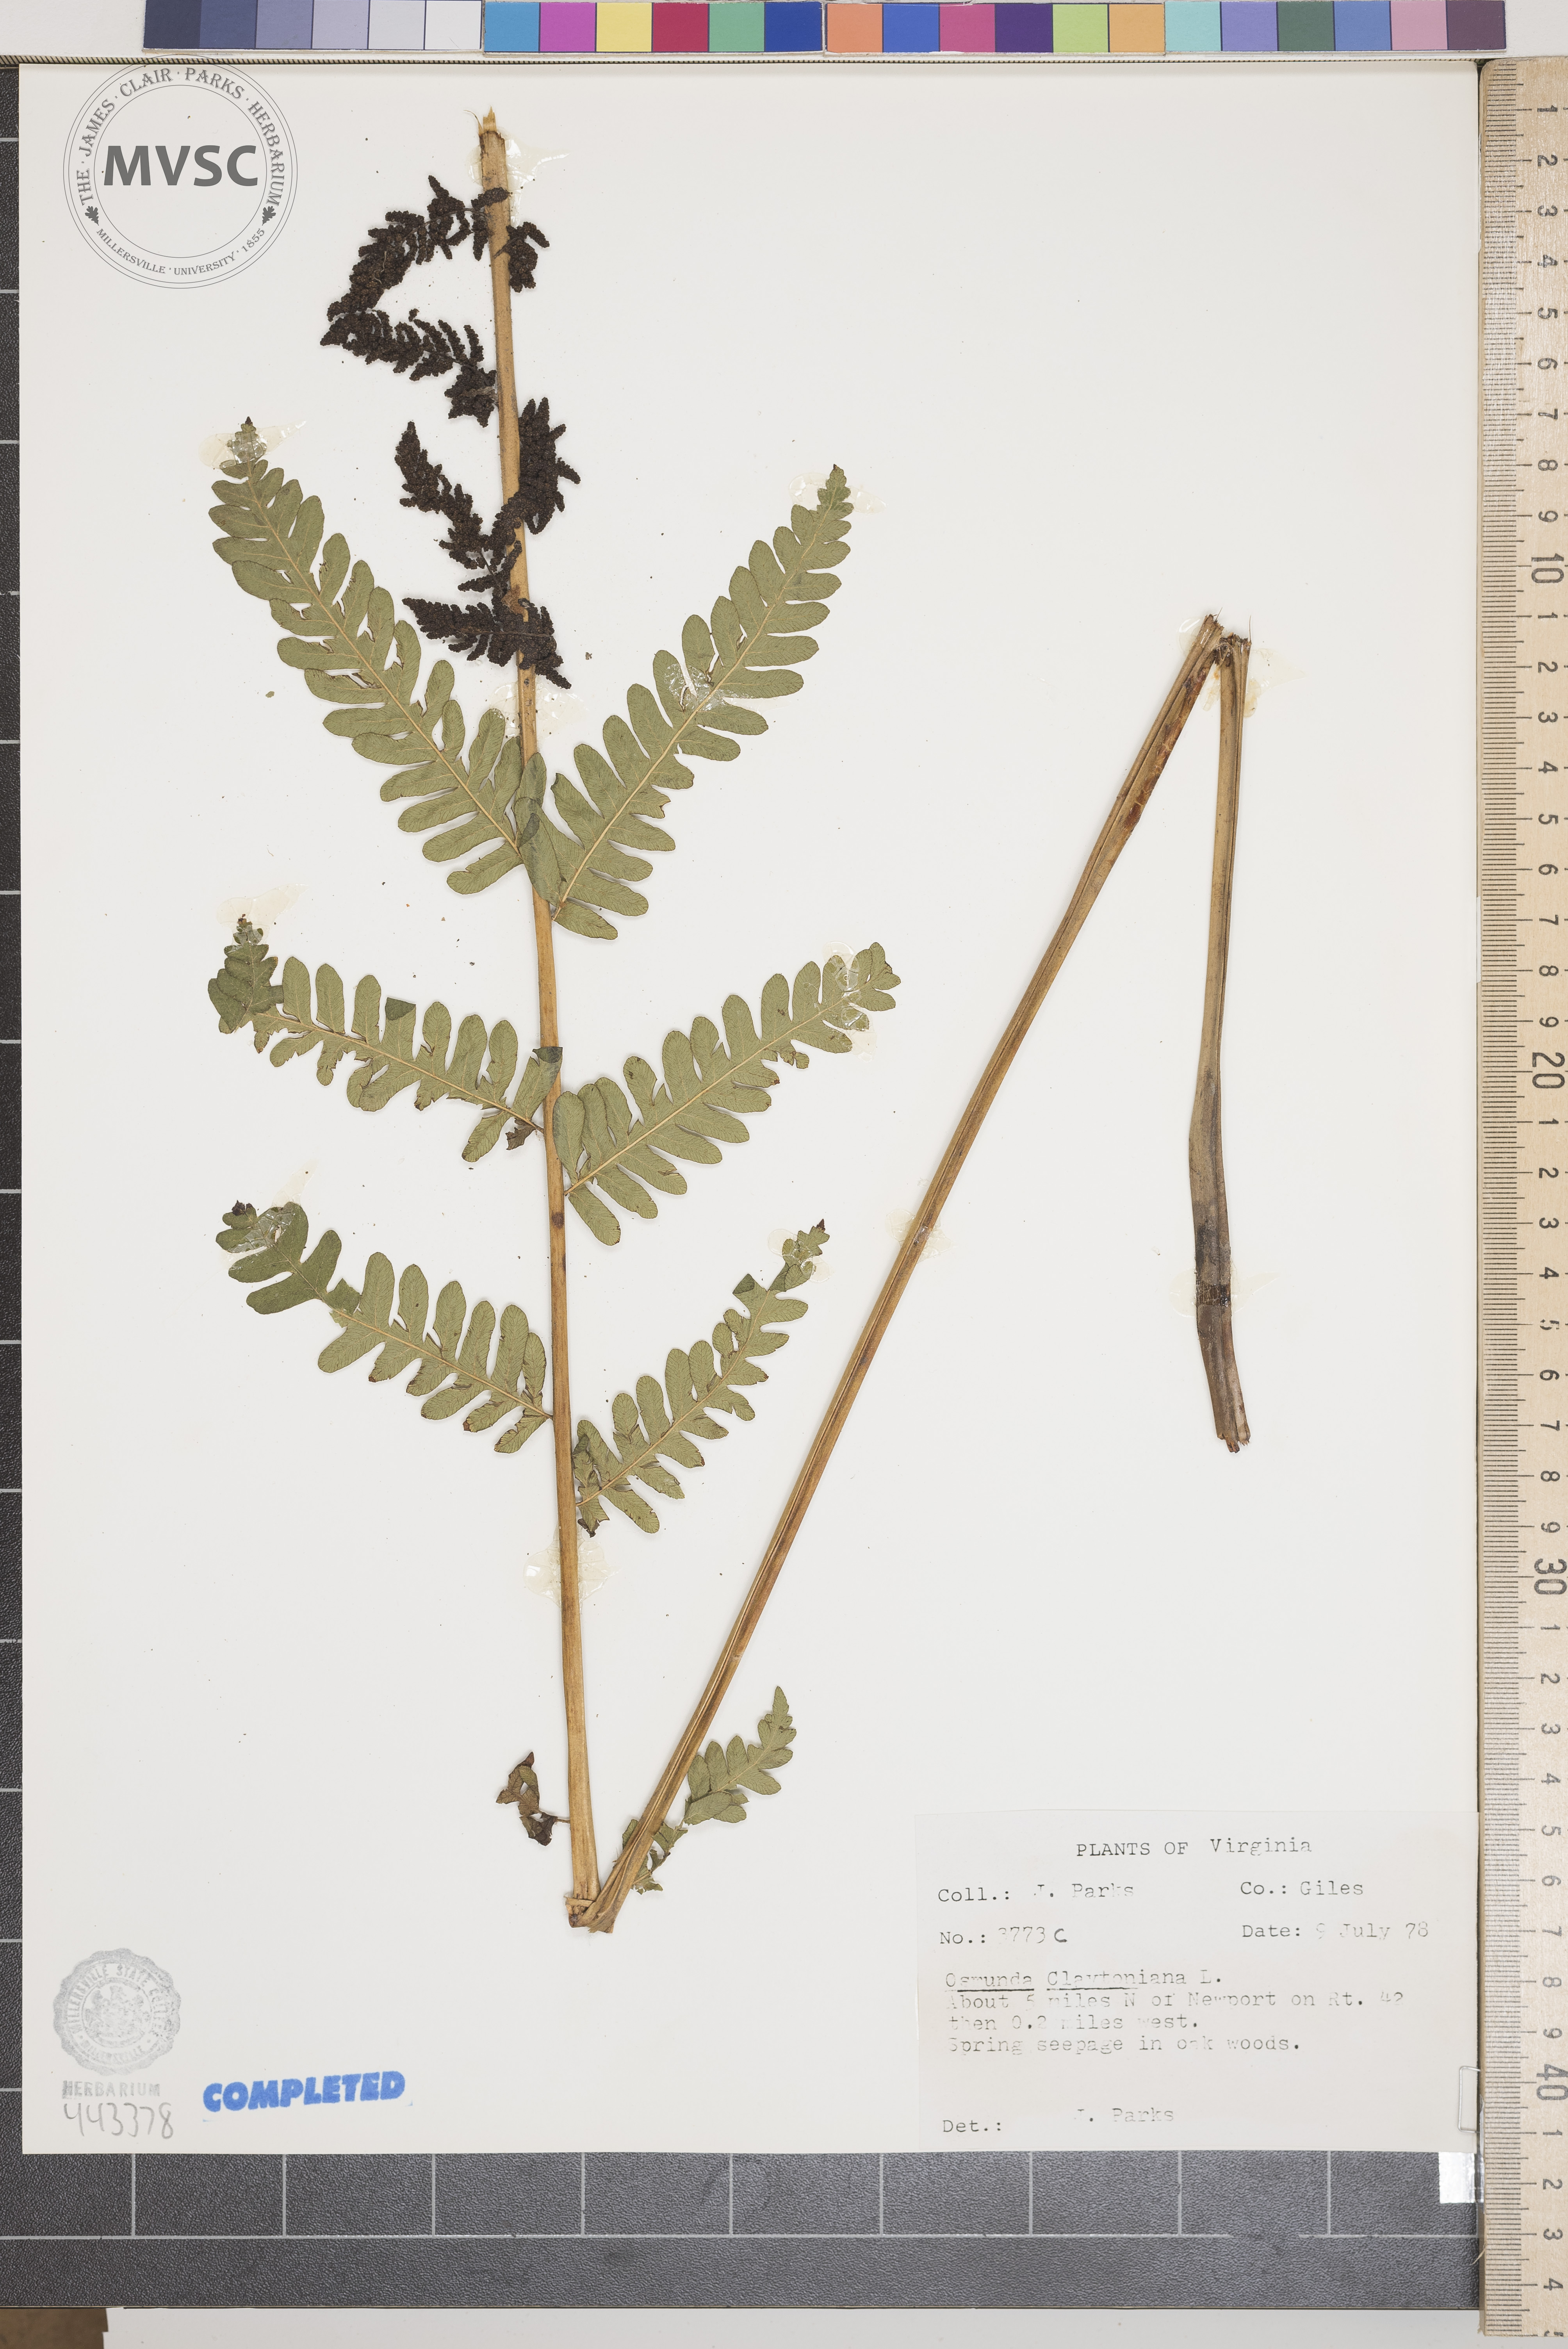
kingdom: Plantae
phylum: Tracheophyta
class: Polypodiopsida
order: Osmundales
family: Osmundaceae
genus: Claytosmunda
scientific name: Claytosmunda claytoniana
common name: Clayton's fern
